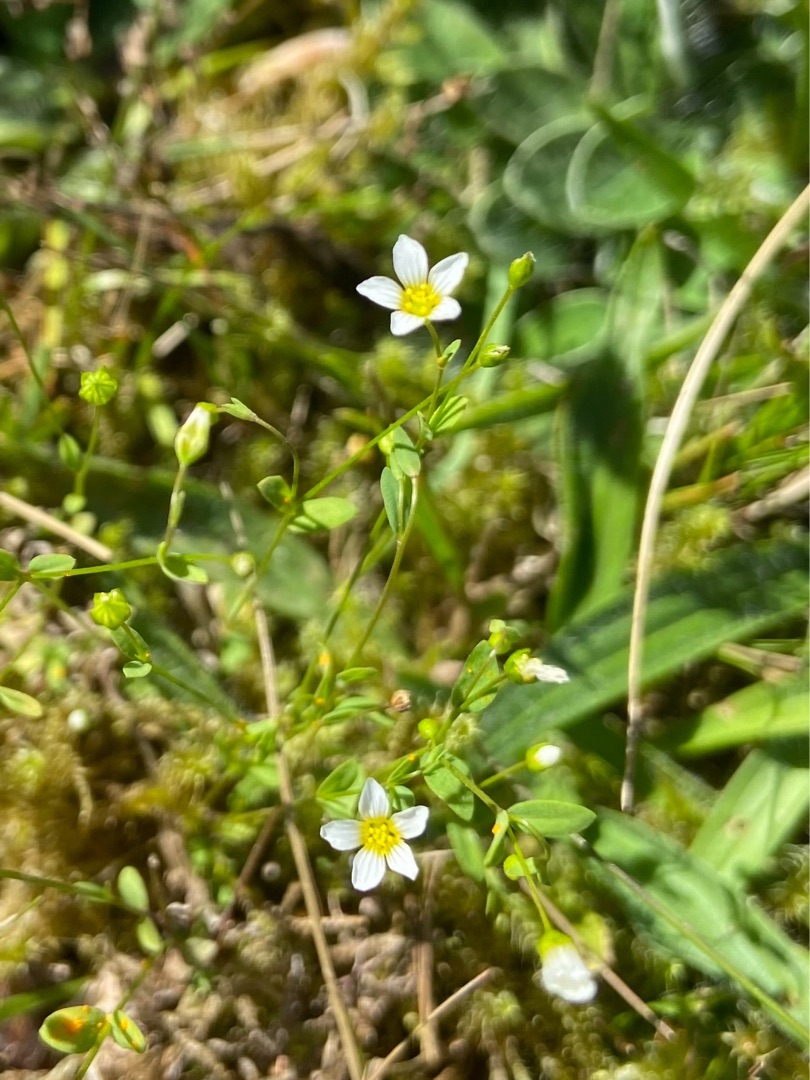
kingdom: Plantae
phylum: Tracheophyta
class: Magnoliopsida
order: Malpighiales
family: Linaceae
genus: Linum
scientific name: Linum catharticum
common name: Vild hør
